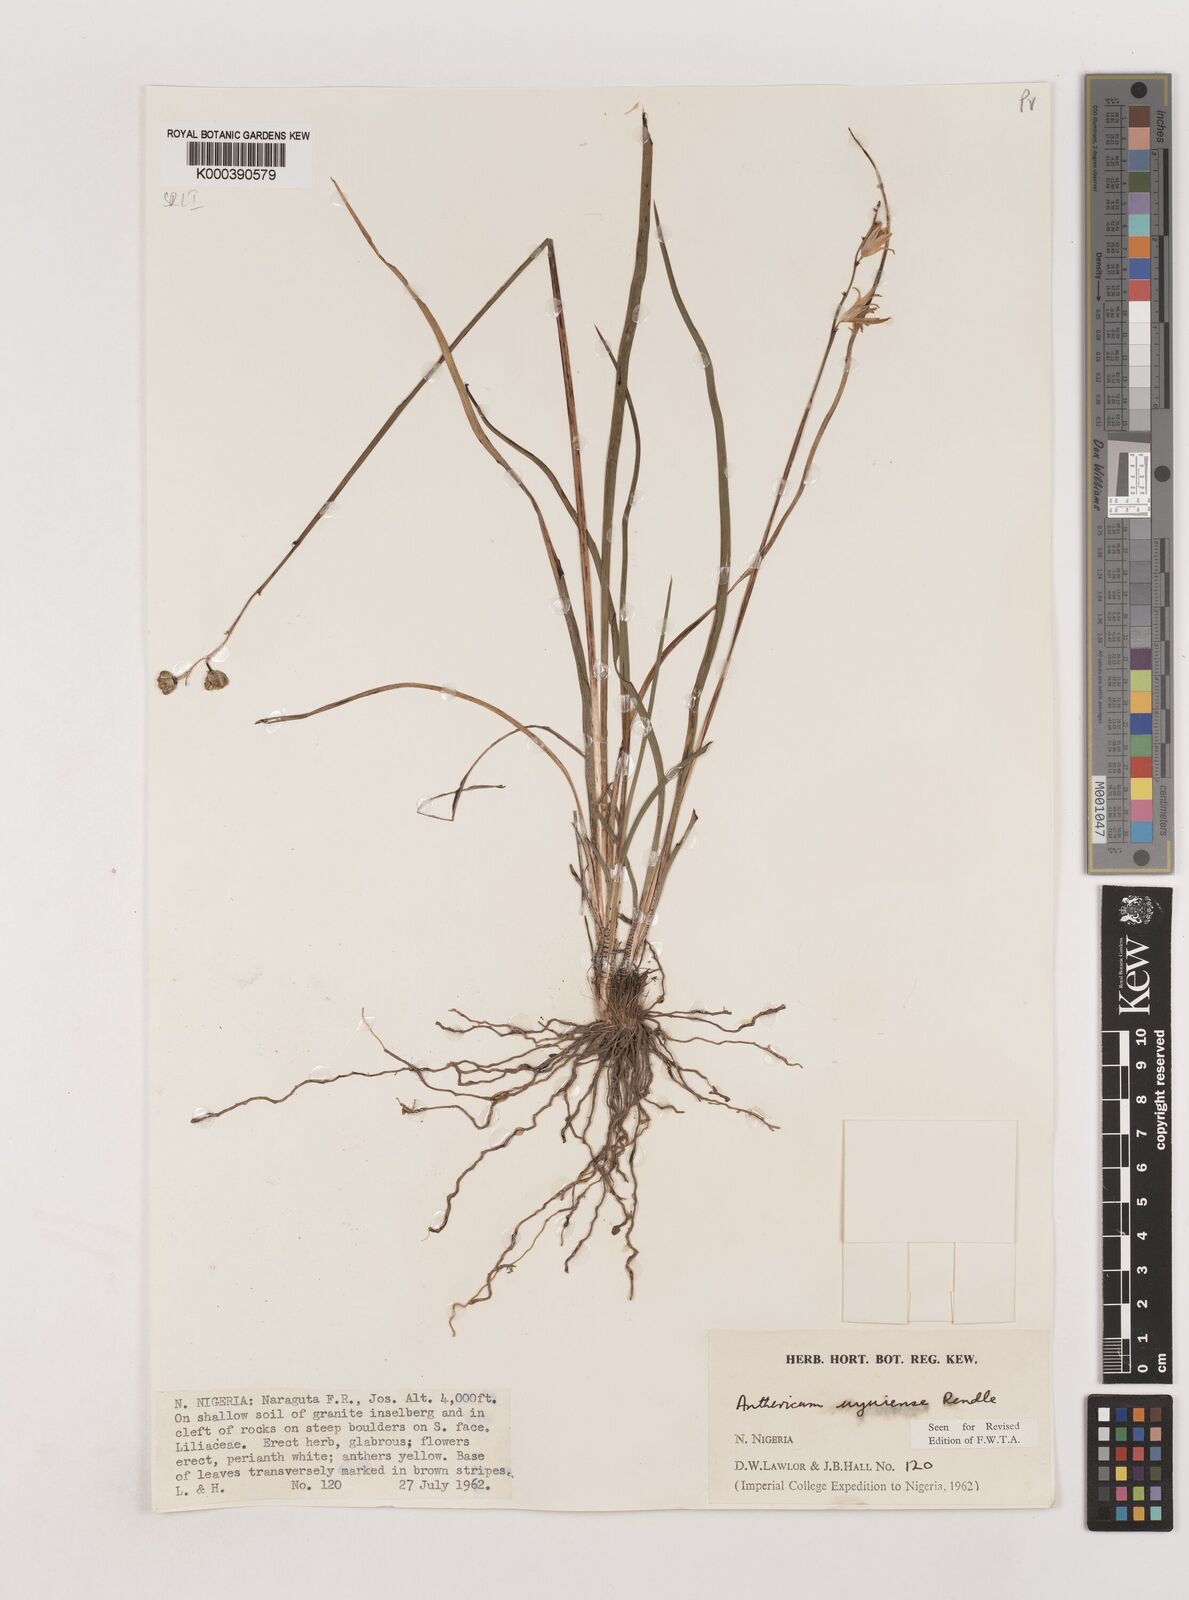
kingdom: Plantae
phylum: Tracheophyta
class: Liliopsida
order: Asparagales
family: Asparagaceae
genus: Chlorophytum
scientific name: Chlorophytum cameronii
